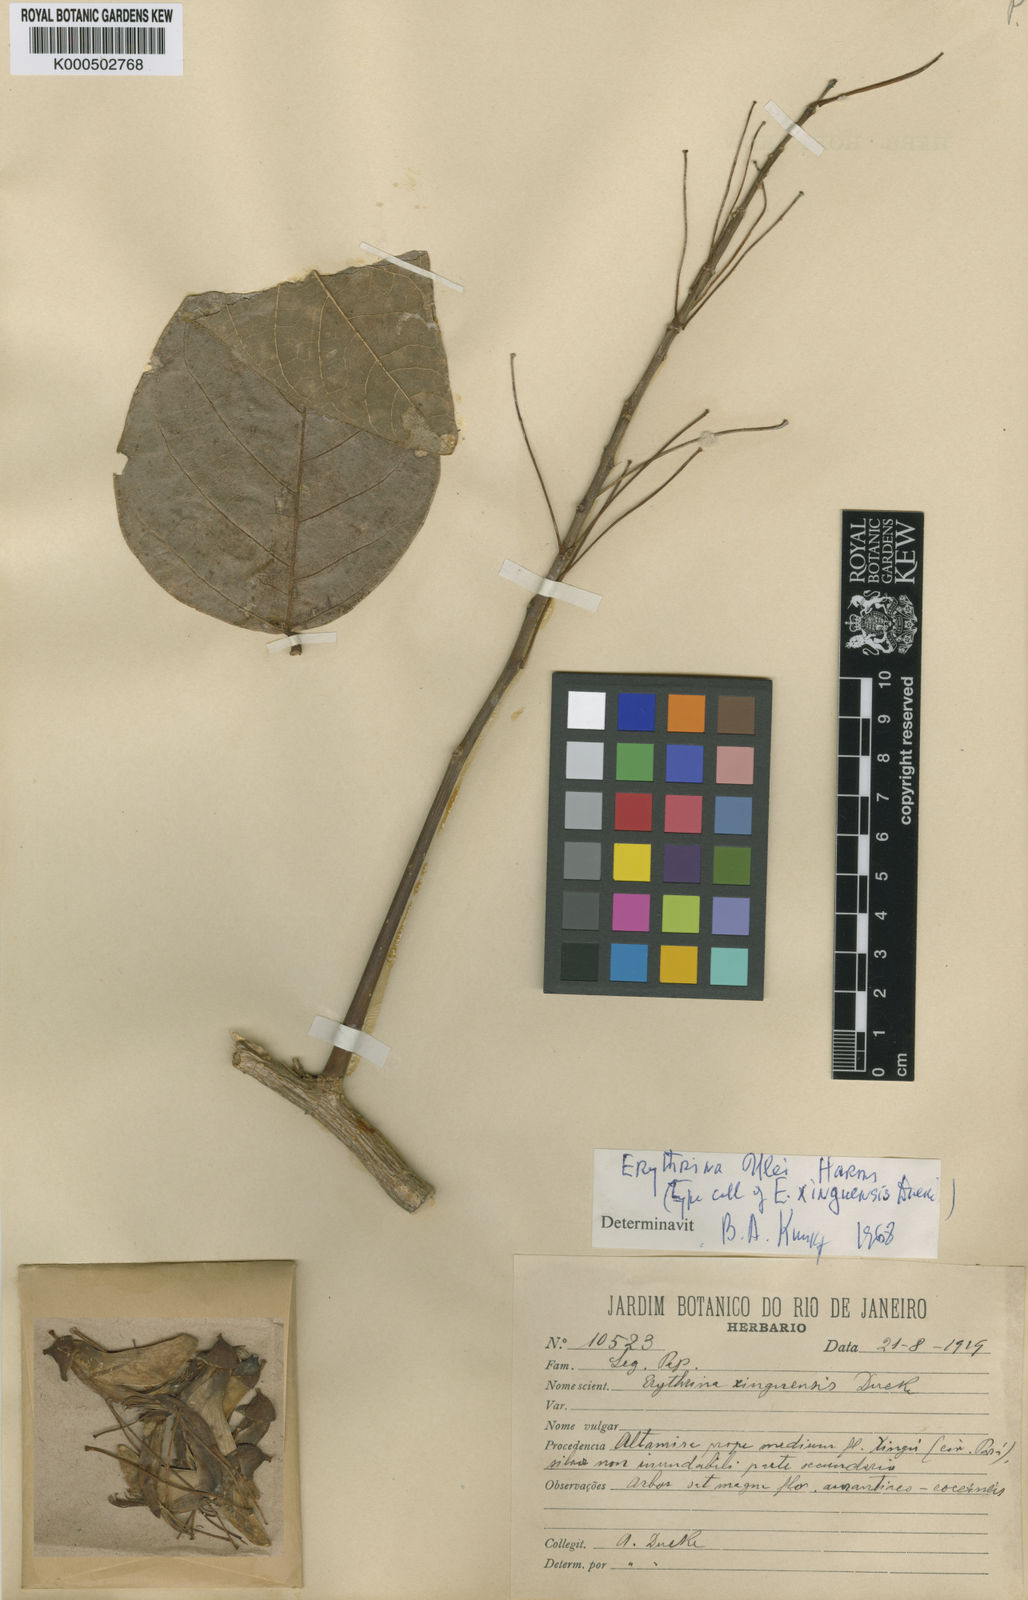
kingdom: Plantae
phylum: Tracheophyta
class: Magnoliopsida
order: Fabales
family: Fabaceae
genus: Erythrina
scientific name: Erythrina ulei
